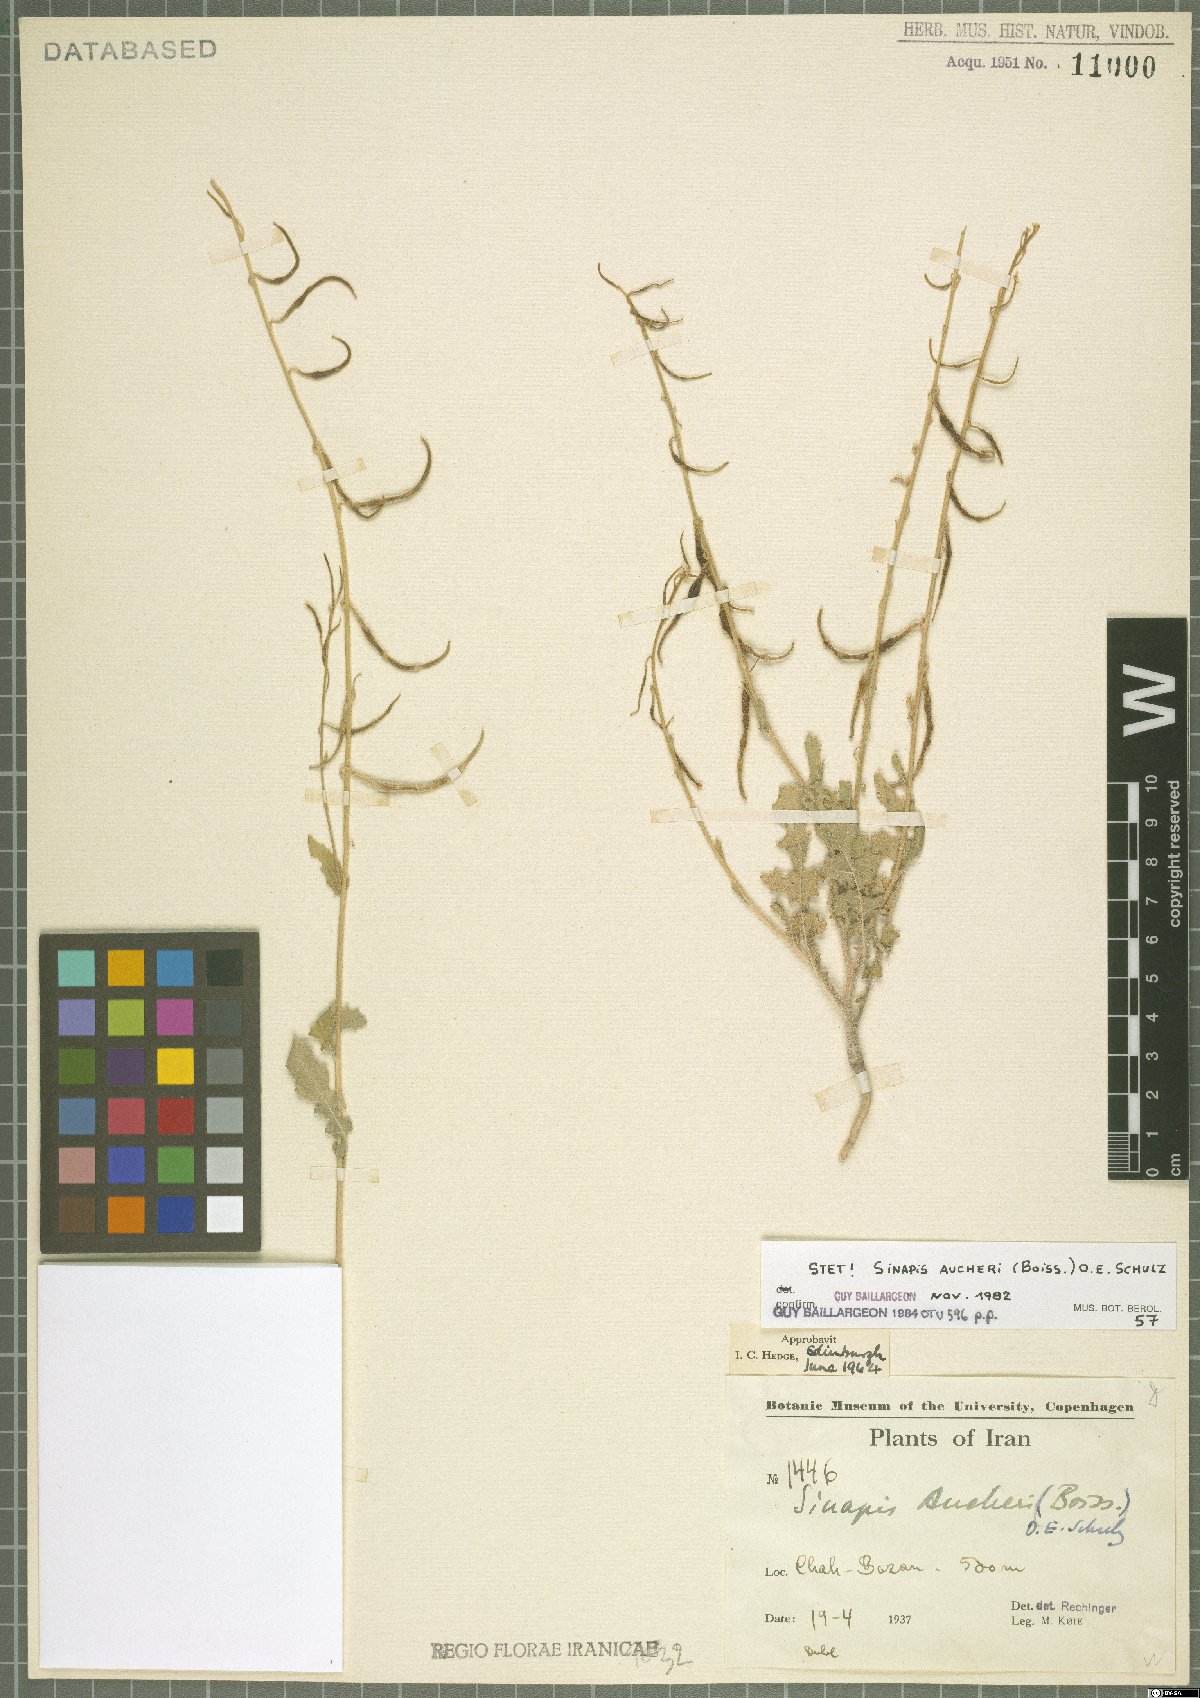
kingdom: Plantae
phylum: Tracheophyta
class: Magnoliopsida
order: Brassicales
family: Brassicaceae
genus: Brassica
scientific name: Brassica aucheri
